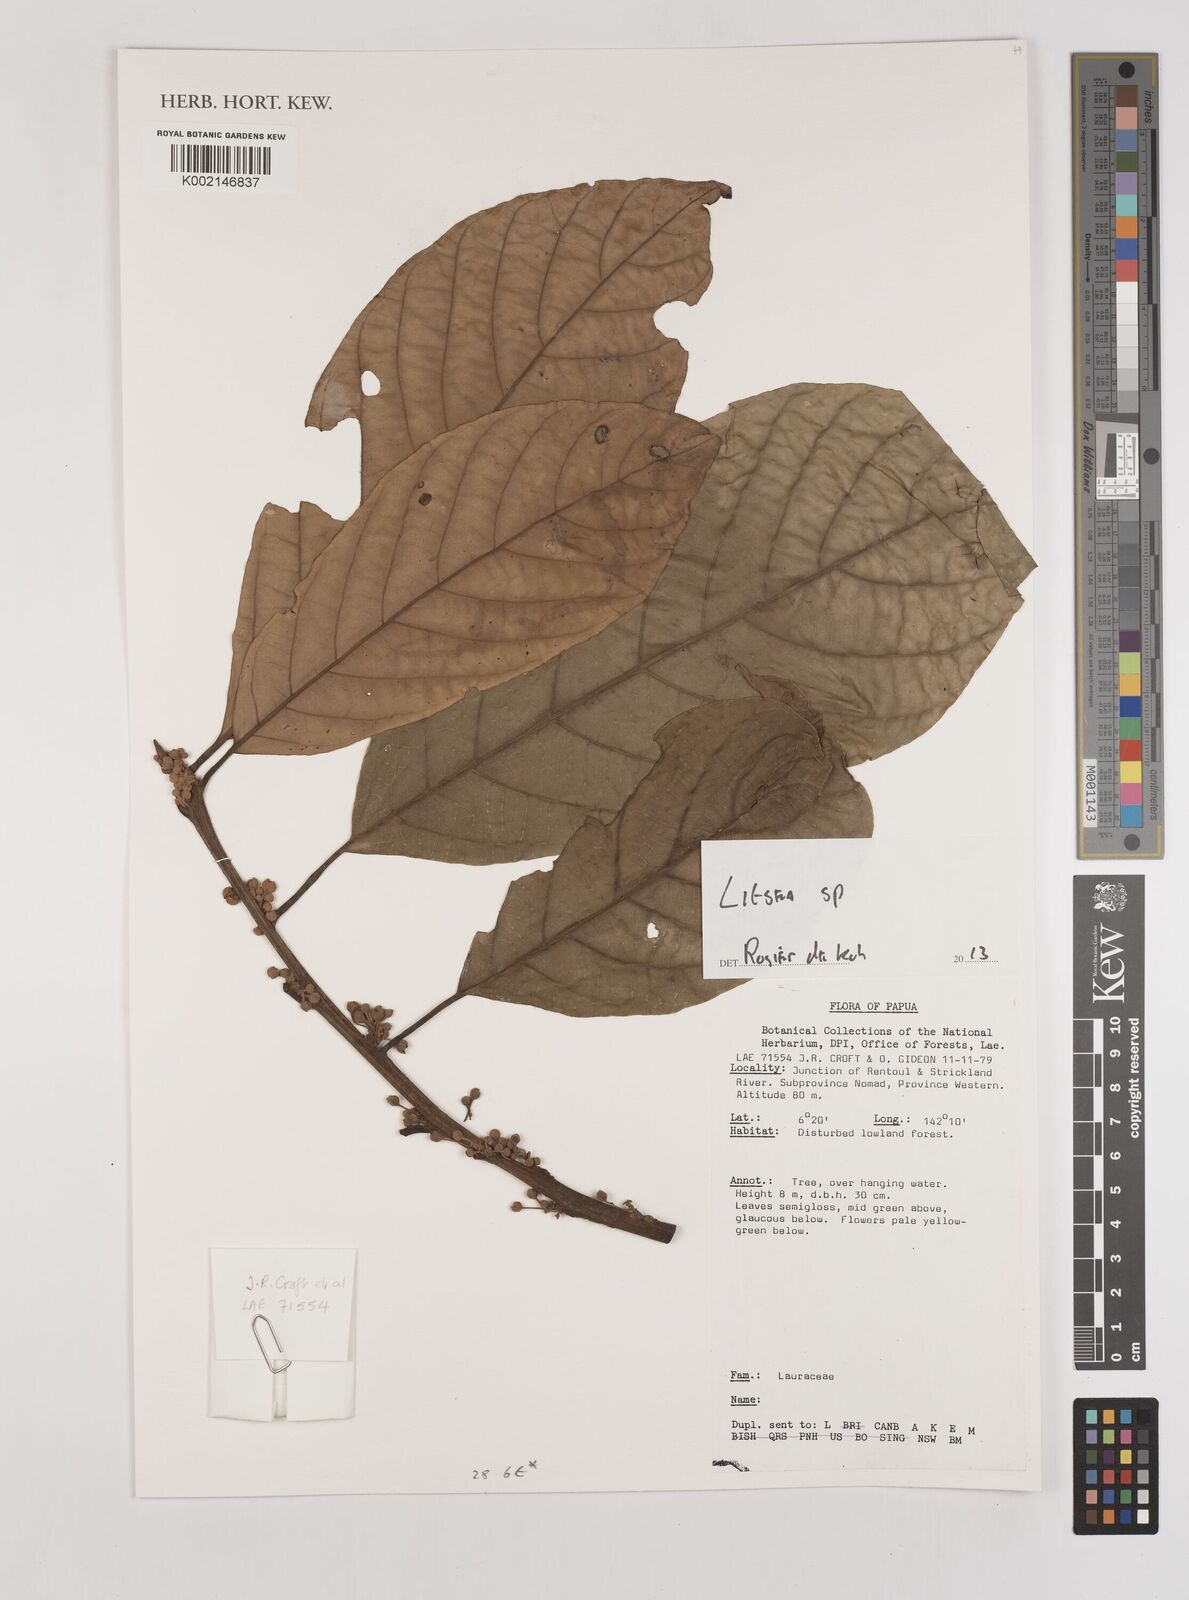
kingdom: Plantae
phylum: Tracheophyta
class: Magnoliopsida
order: Laurales
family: Lauraceae
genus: Litsea
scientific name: Litsea
